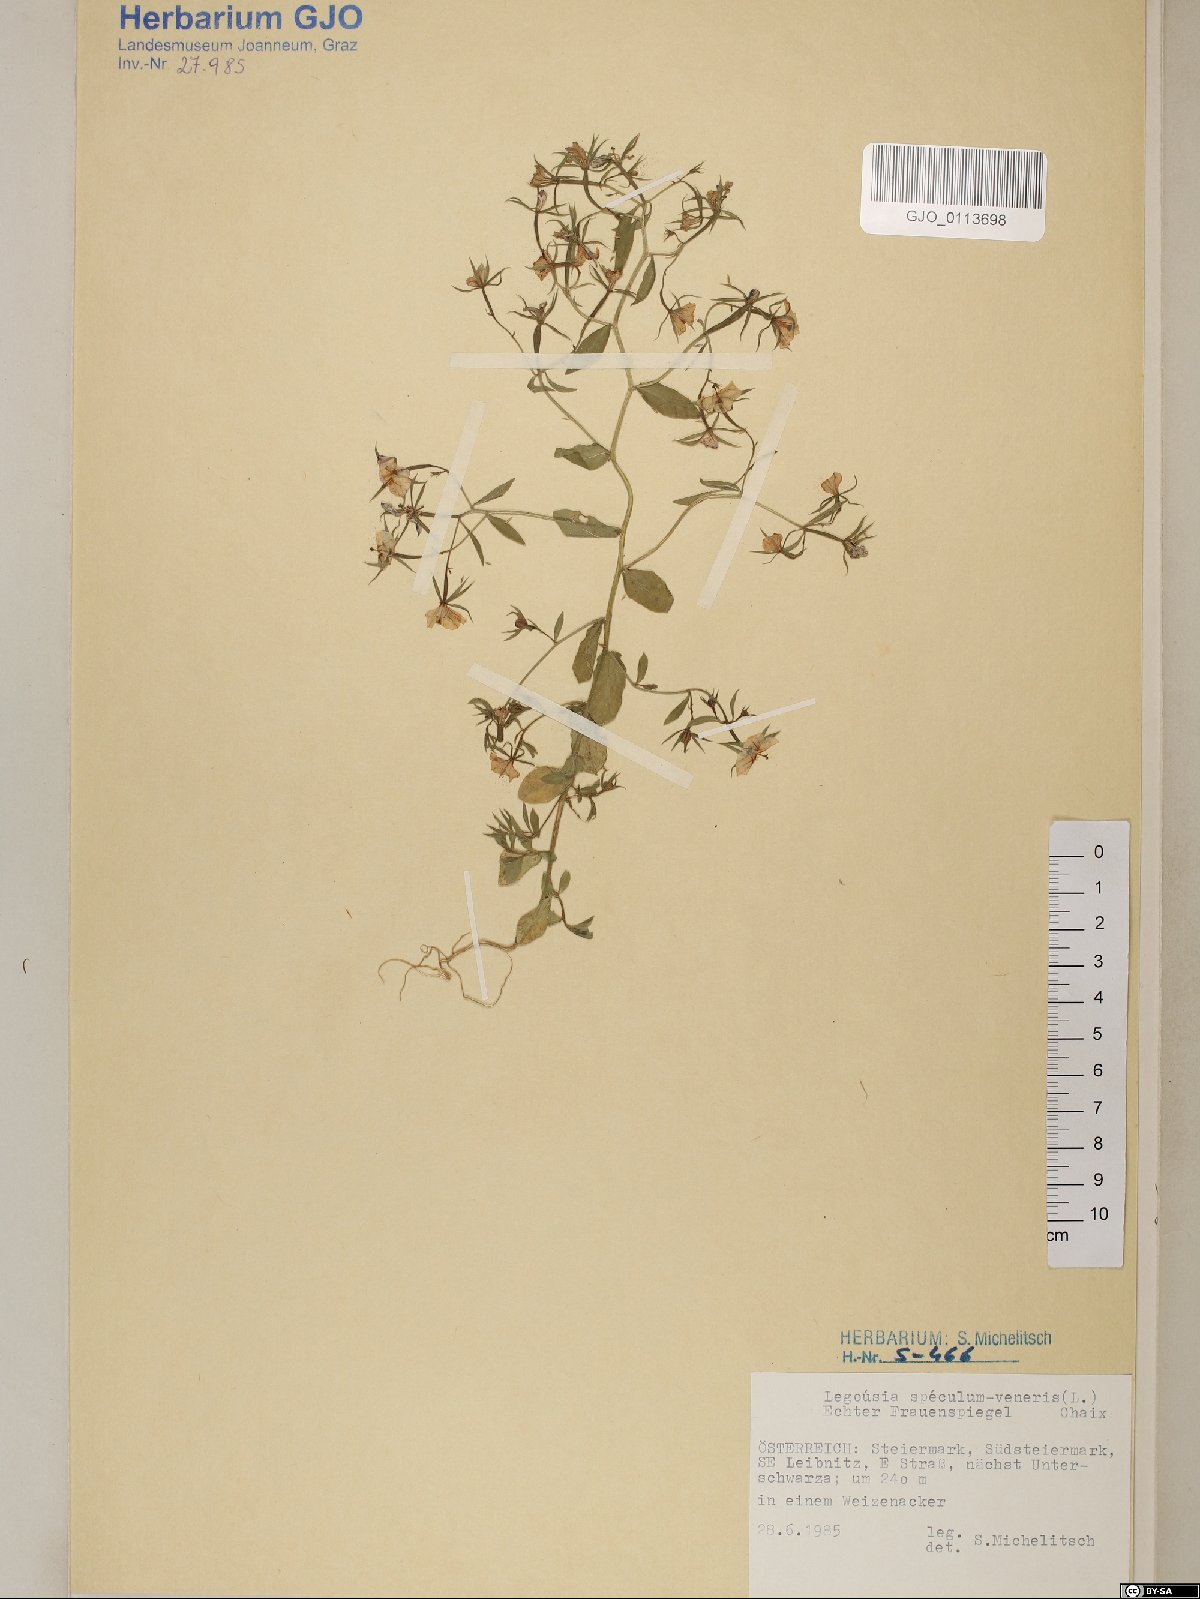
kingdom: Plantae
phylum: Tracheophyta
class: Magnoliopsida
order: Asterales
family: Campanulaceae
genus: Legousia
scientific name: Legousia speculum-veneris
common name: Large venus's-looking-glass
